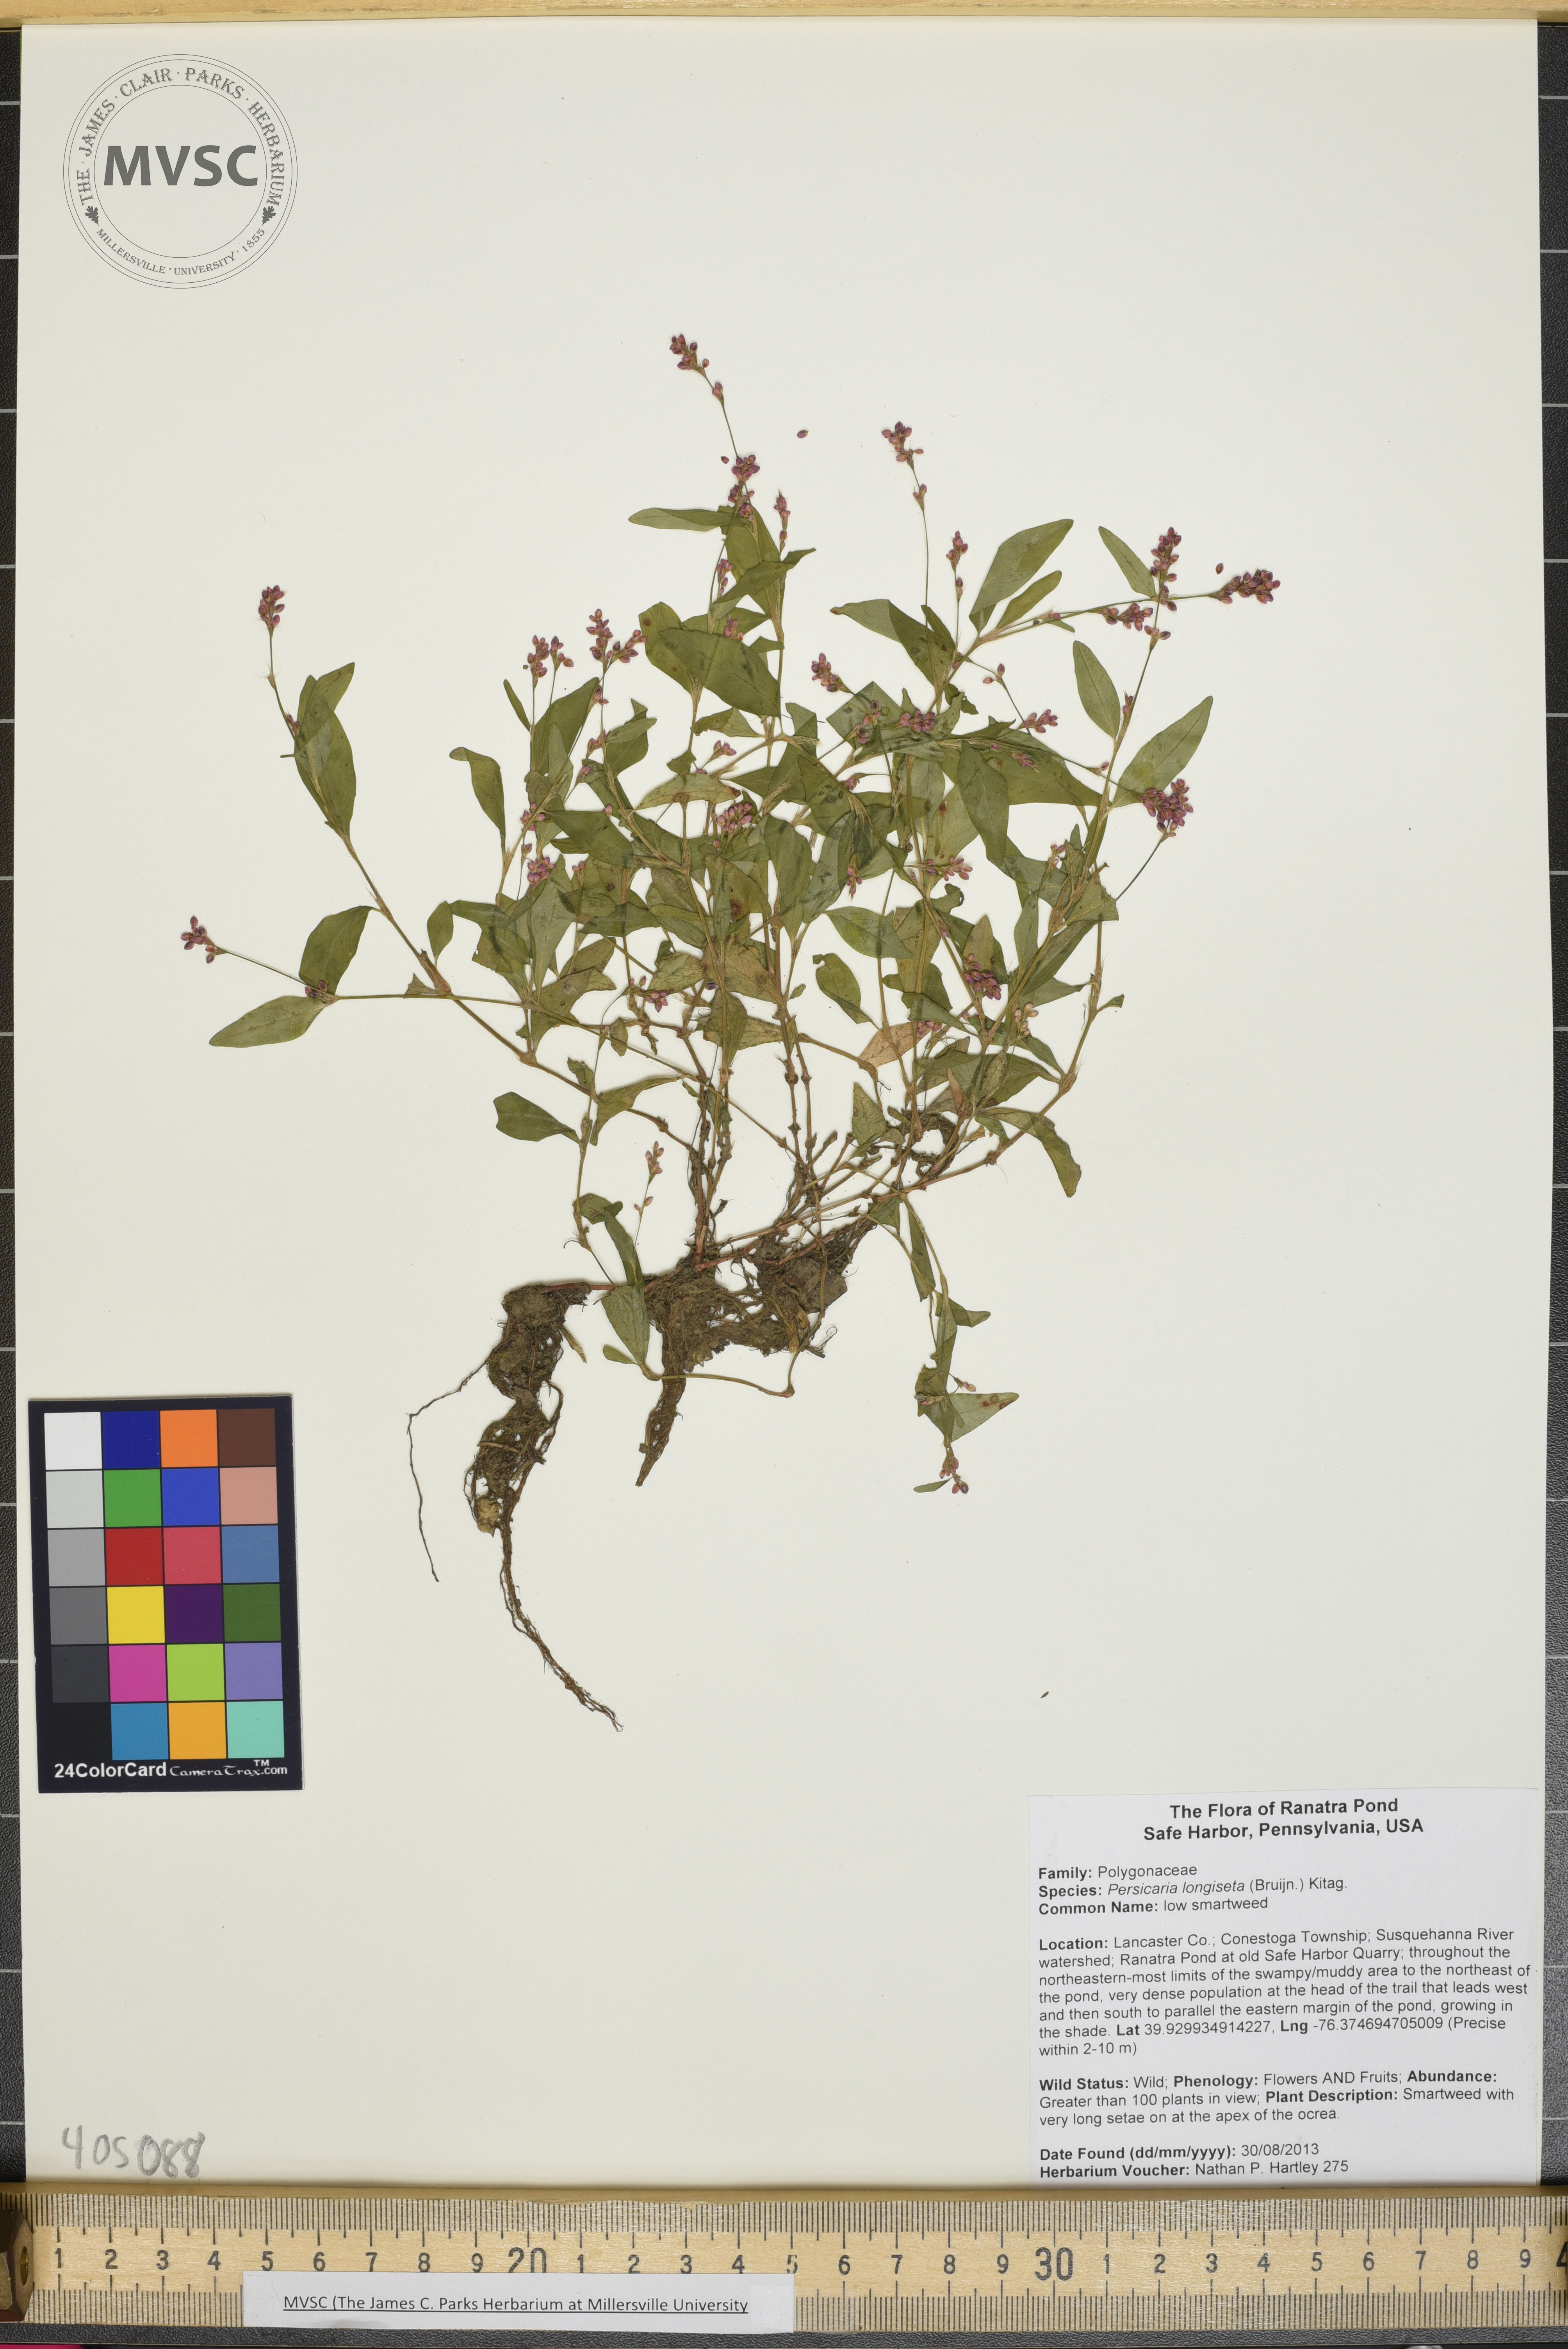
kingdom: Plantae
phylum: Tracheophyta
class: Magnoliopsida
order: Caryophyllales
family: Polygonaceae
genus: Persicaria
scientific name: Persicaria longiseta
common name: smartweed
